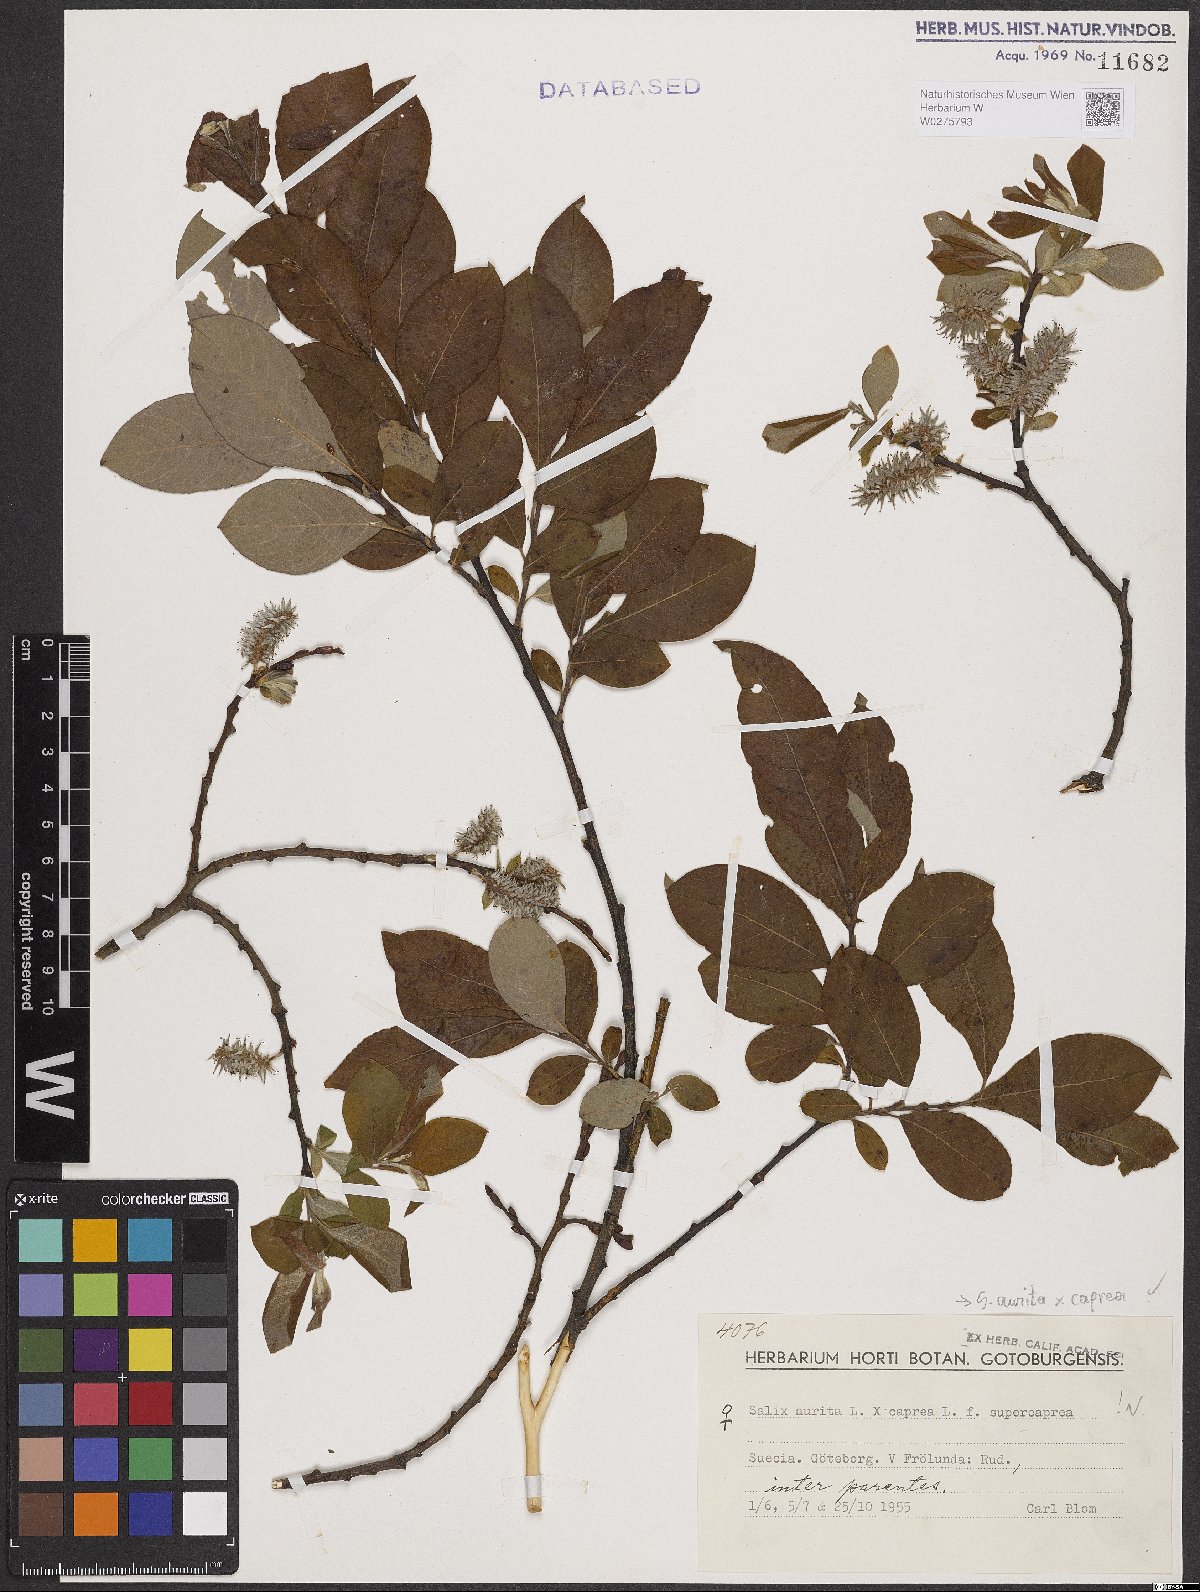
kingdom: Plantae
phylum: Tracheophyta
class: Magnoliopsida
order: Malpighiales
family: Salicaceae
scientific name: Salicaceae
